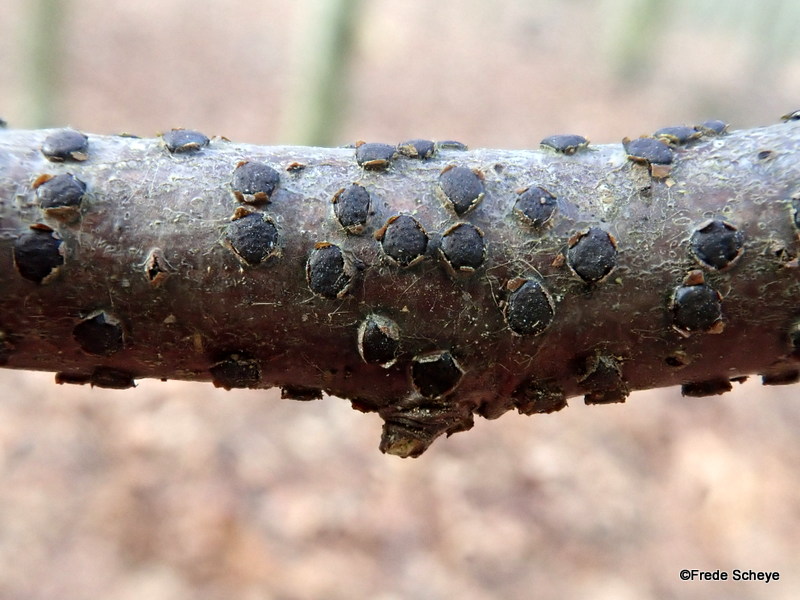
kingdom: Fungi
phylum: Ascomycota
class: Sordariomycetes
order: Xylariales
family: Diatrypaceae
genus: Diatrype
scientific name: Diatrype disciformis
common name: kant-kulskorpe
